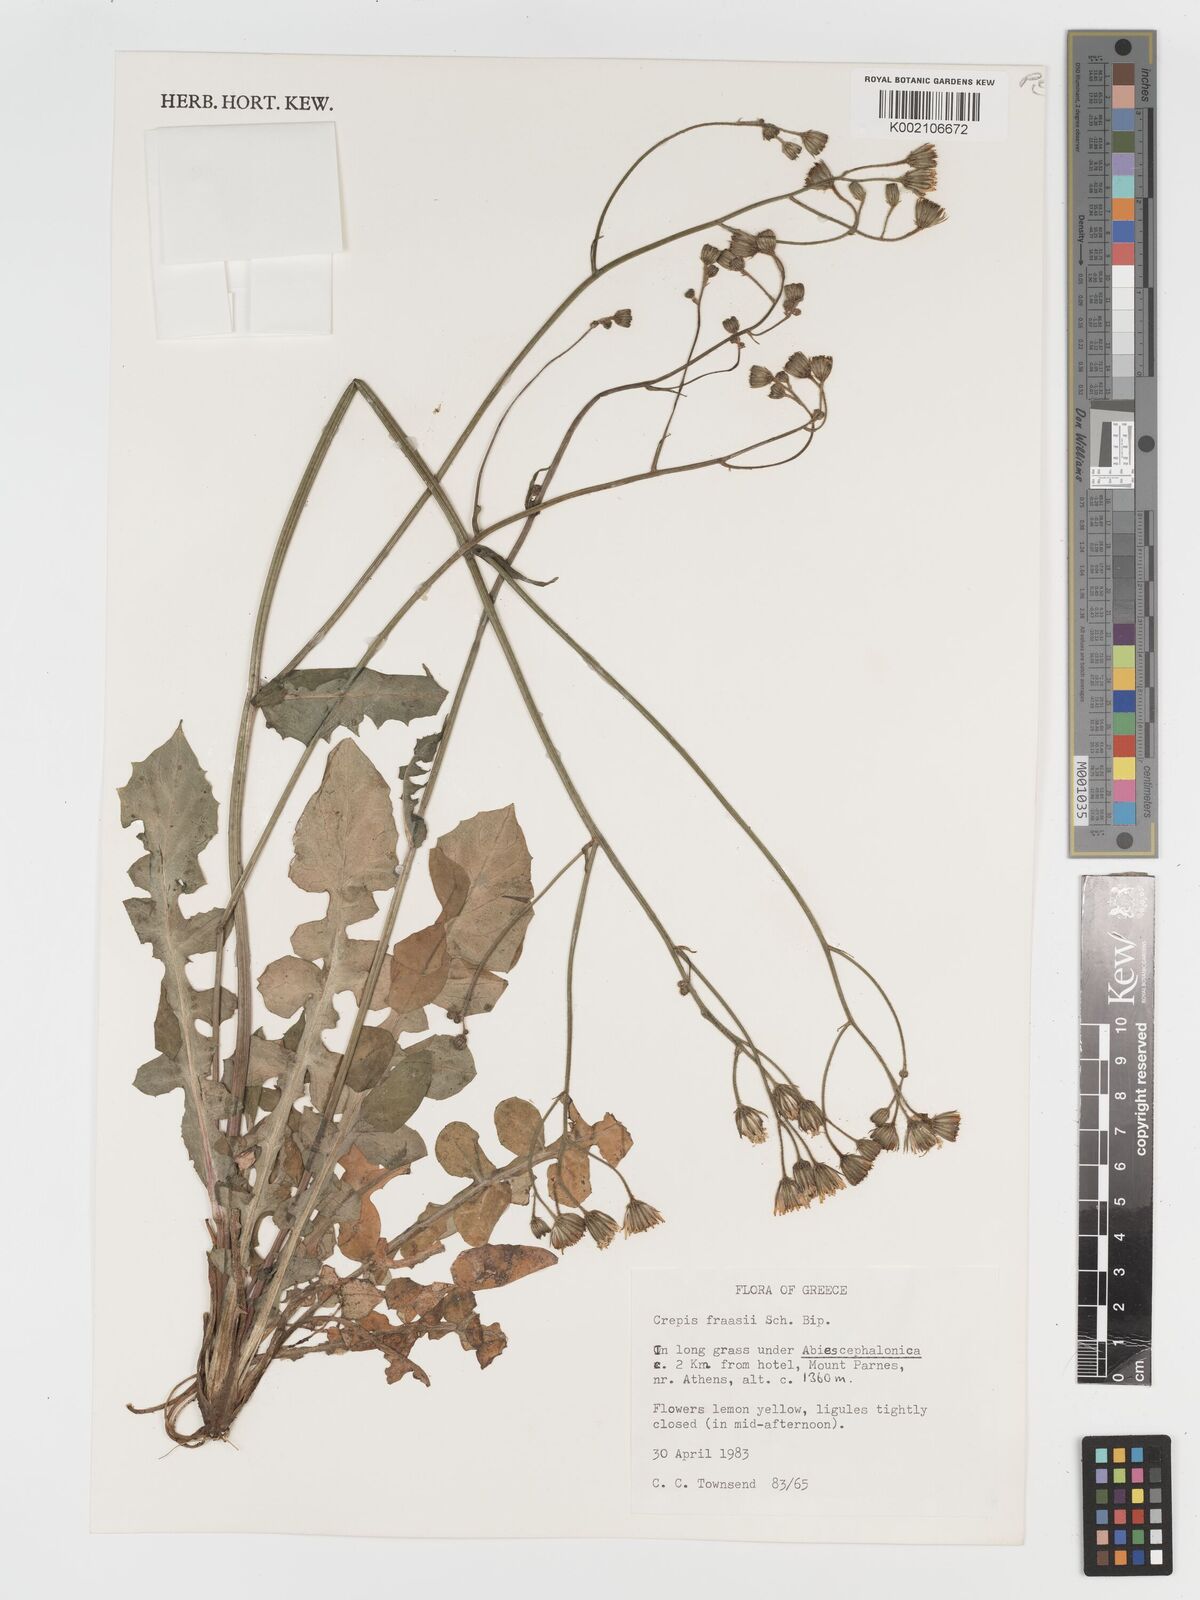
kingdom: Plantae
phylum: Tracheophyta
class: Magnoliopsida
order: Asterales
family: Asteraceae
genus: Crepis
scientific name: Crepis
